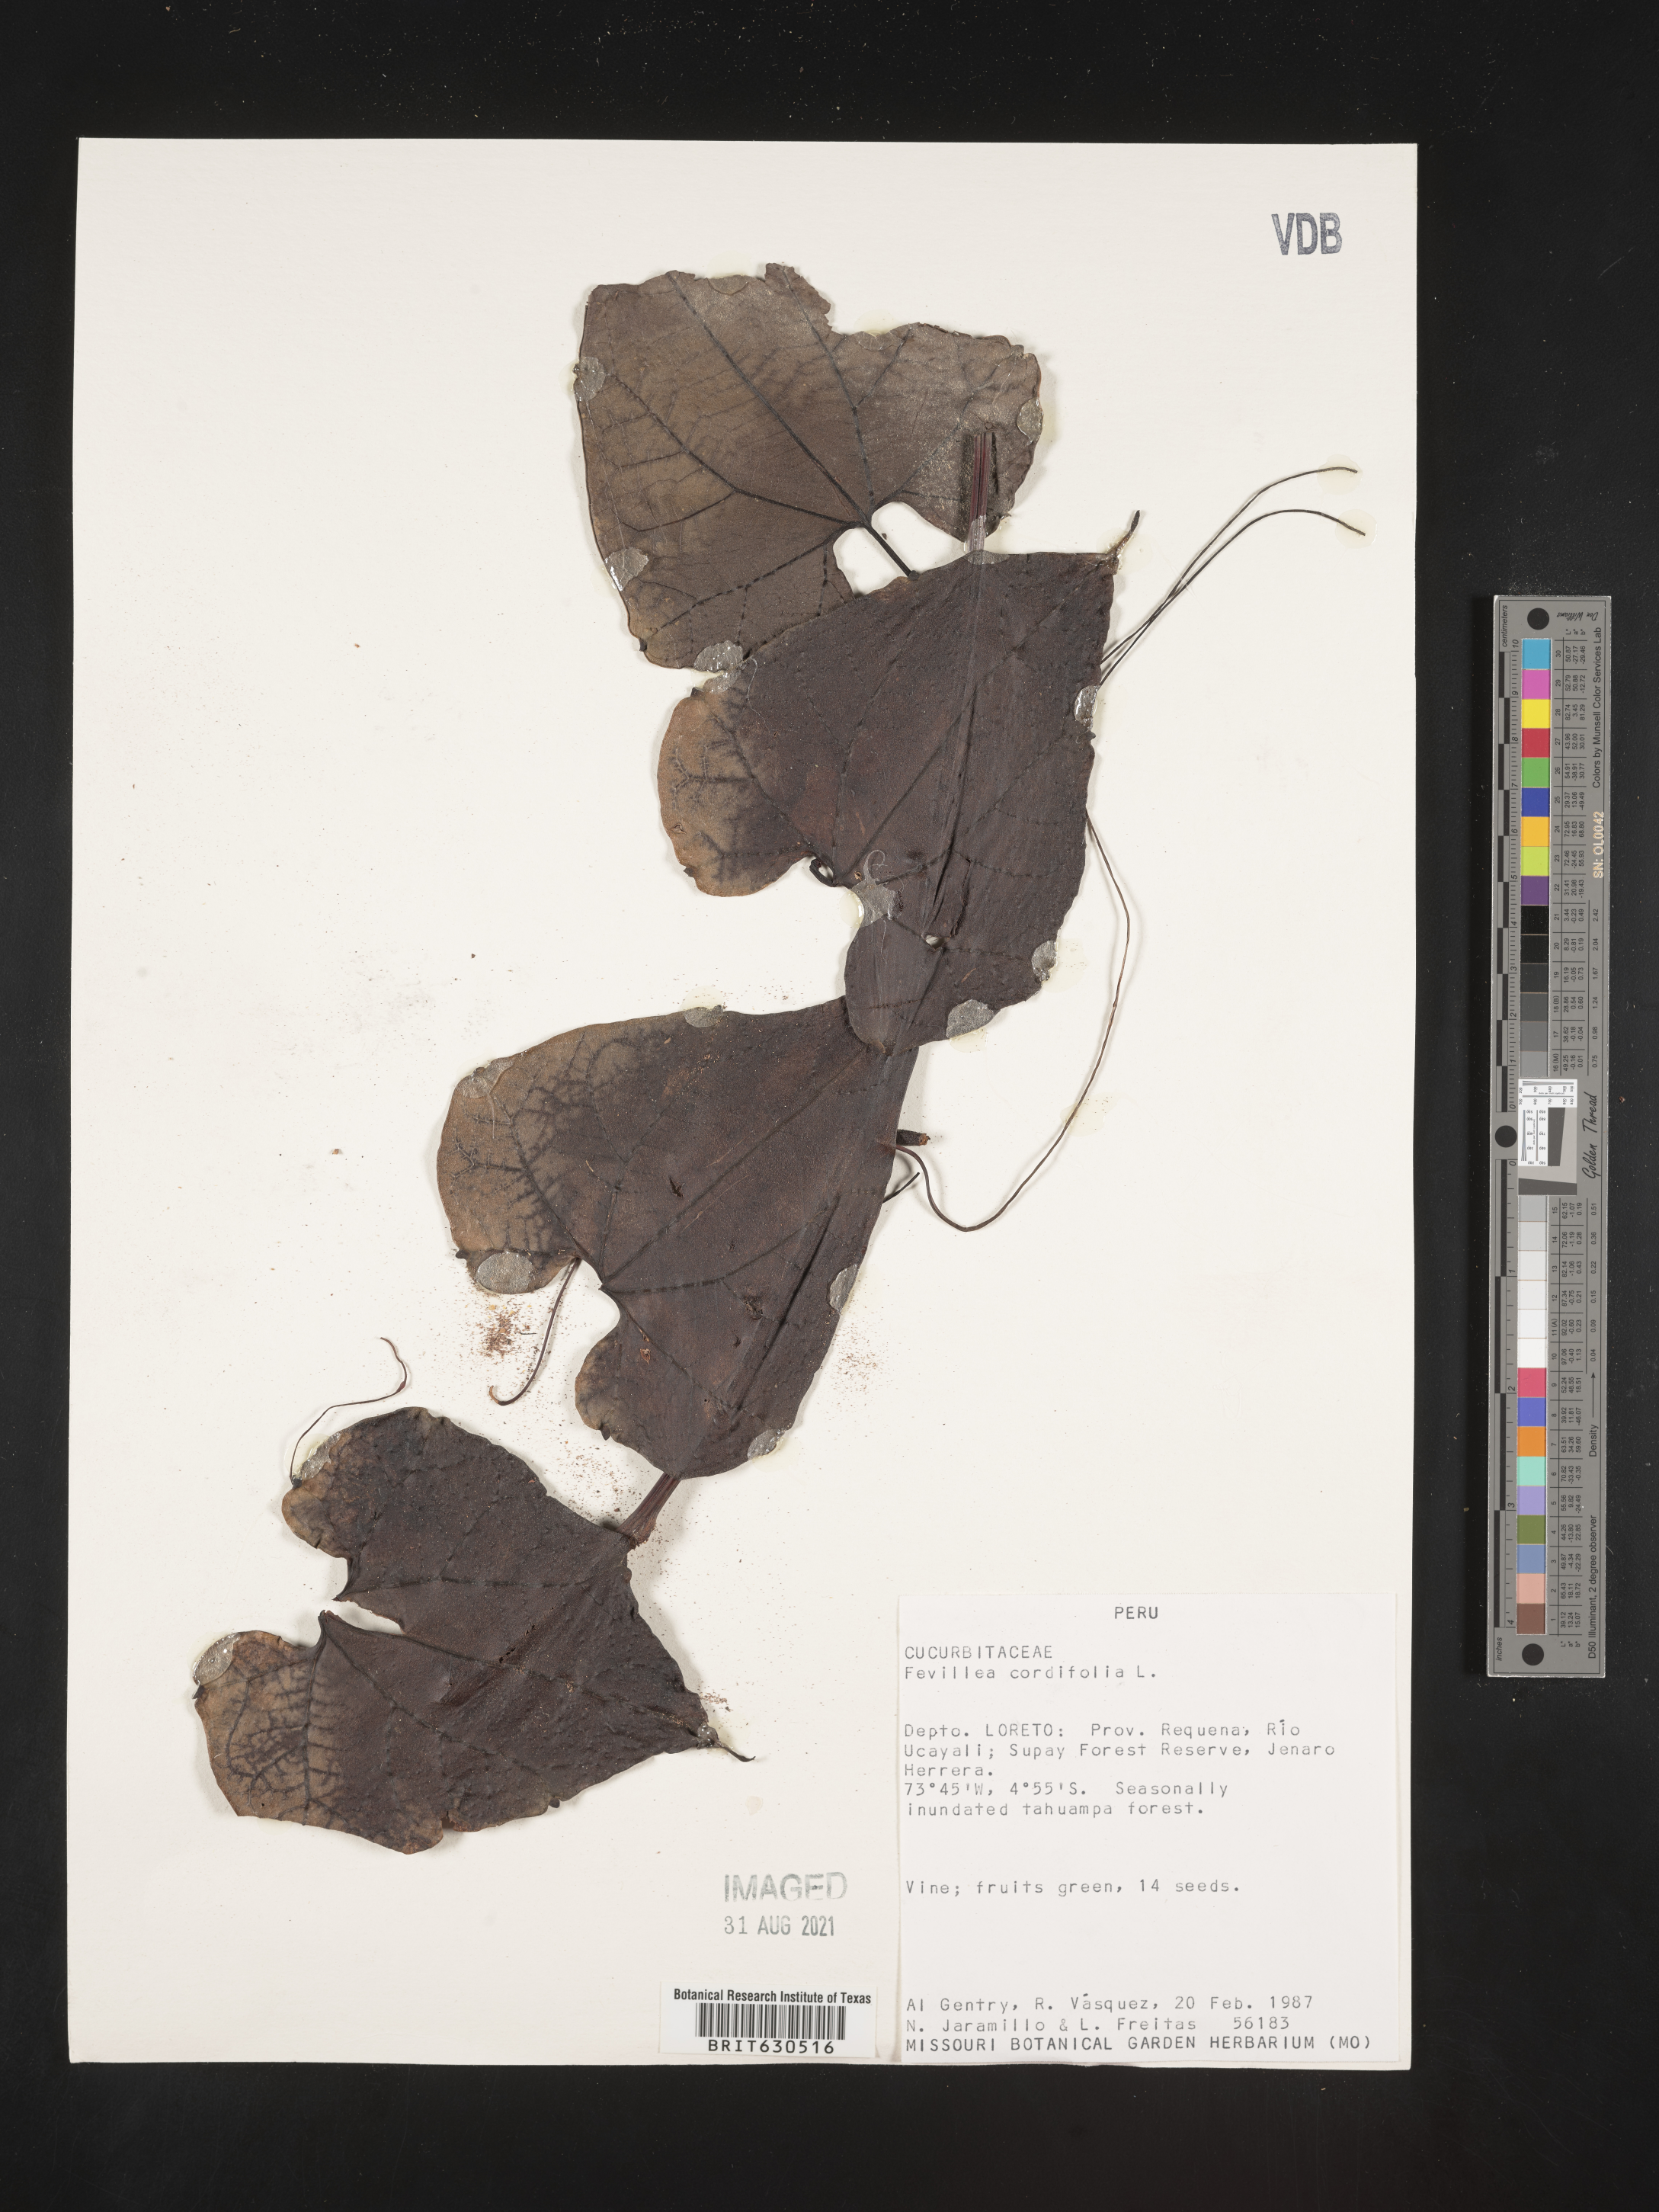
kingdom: Plantae
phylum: Tracheophyta
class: Magnoliopsida
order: Cucurbitales
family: Cucurbitaceae
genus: Fevillea
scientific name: Fevillea cordifolia
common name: Antidote-vine
